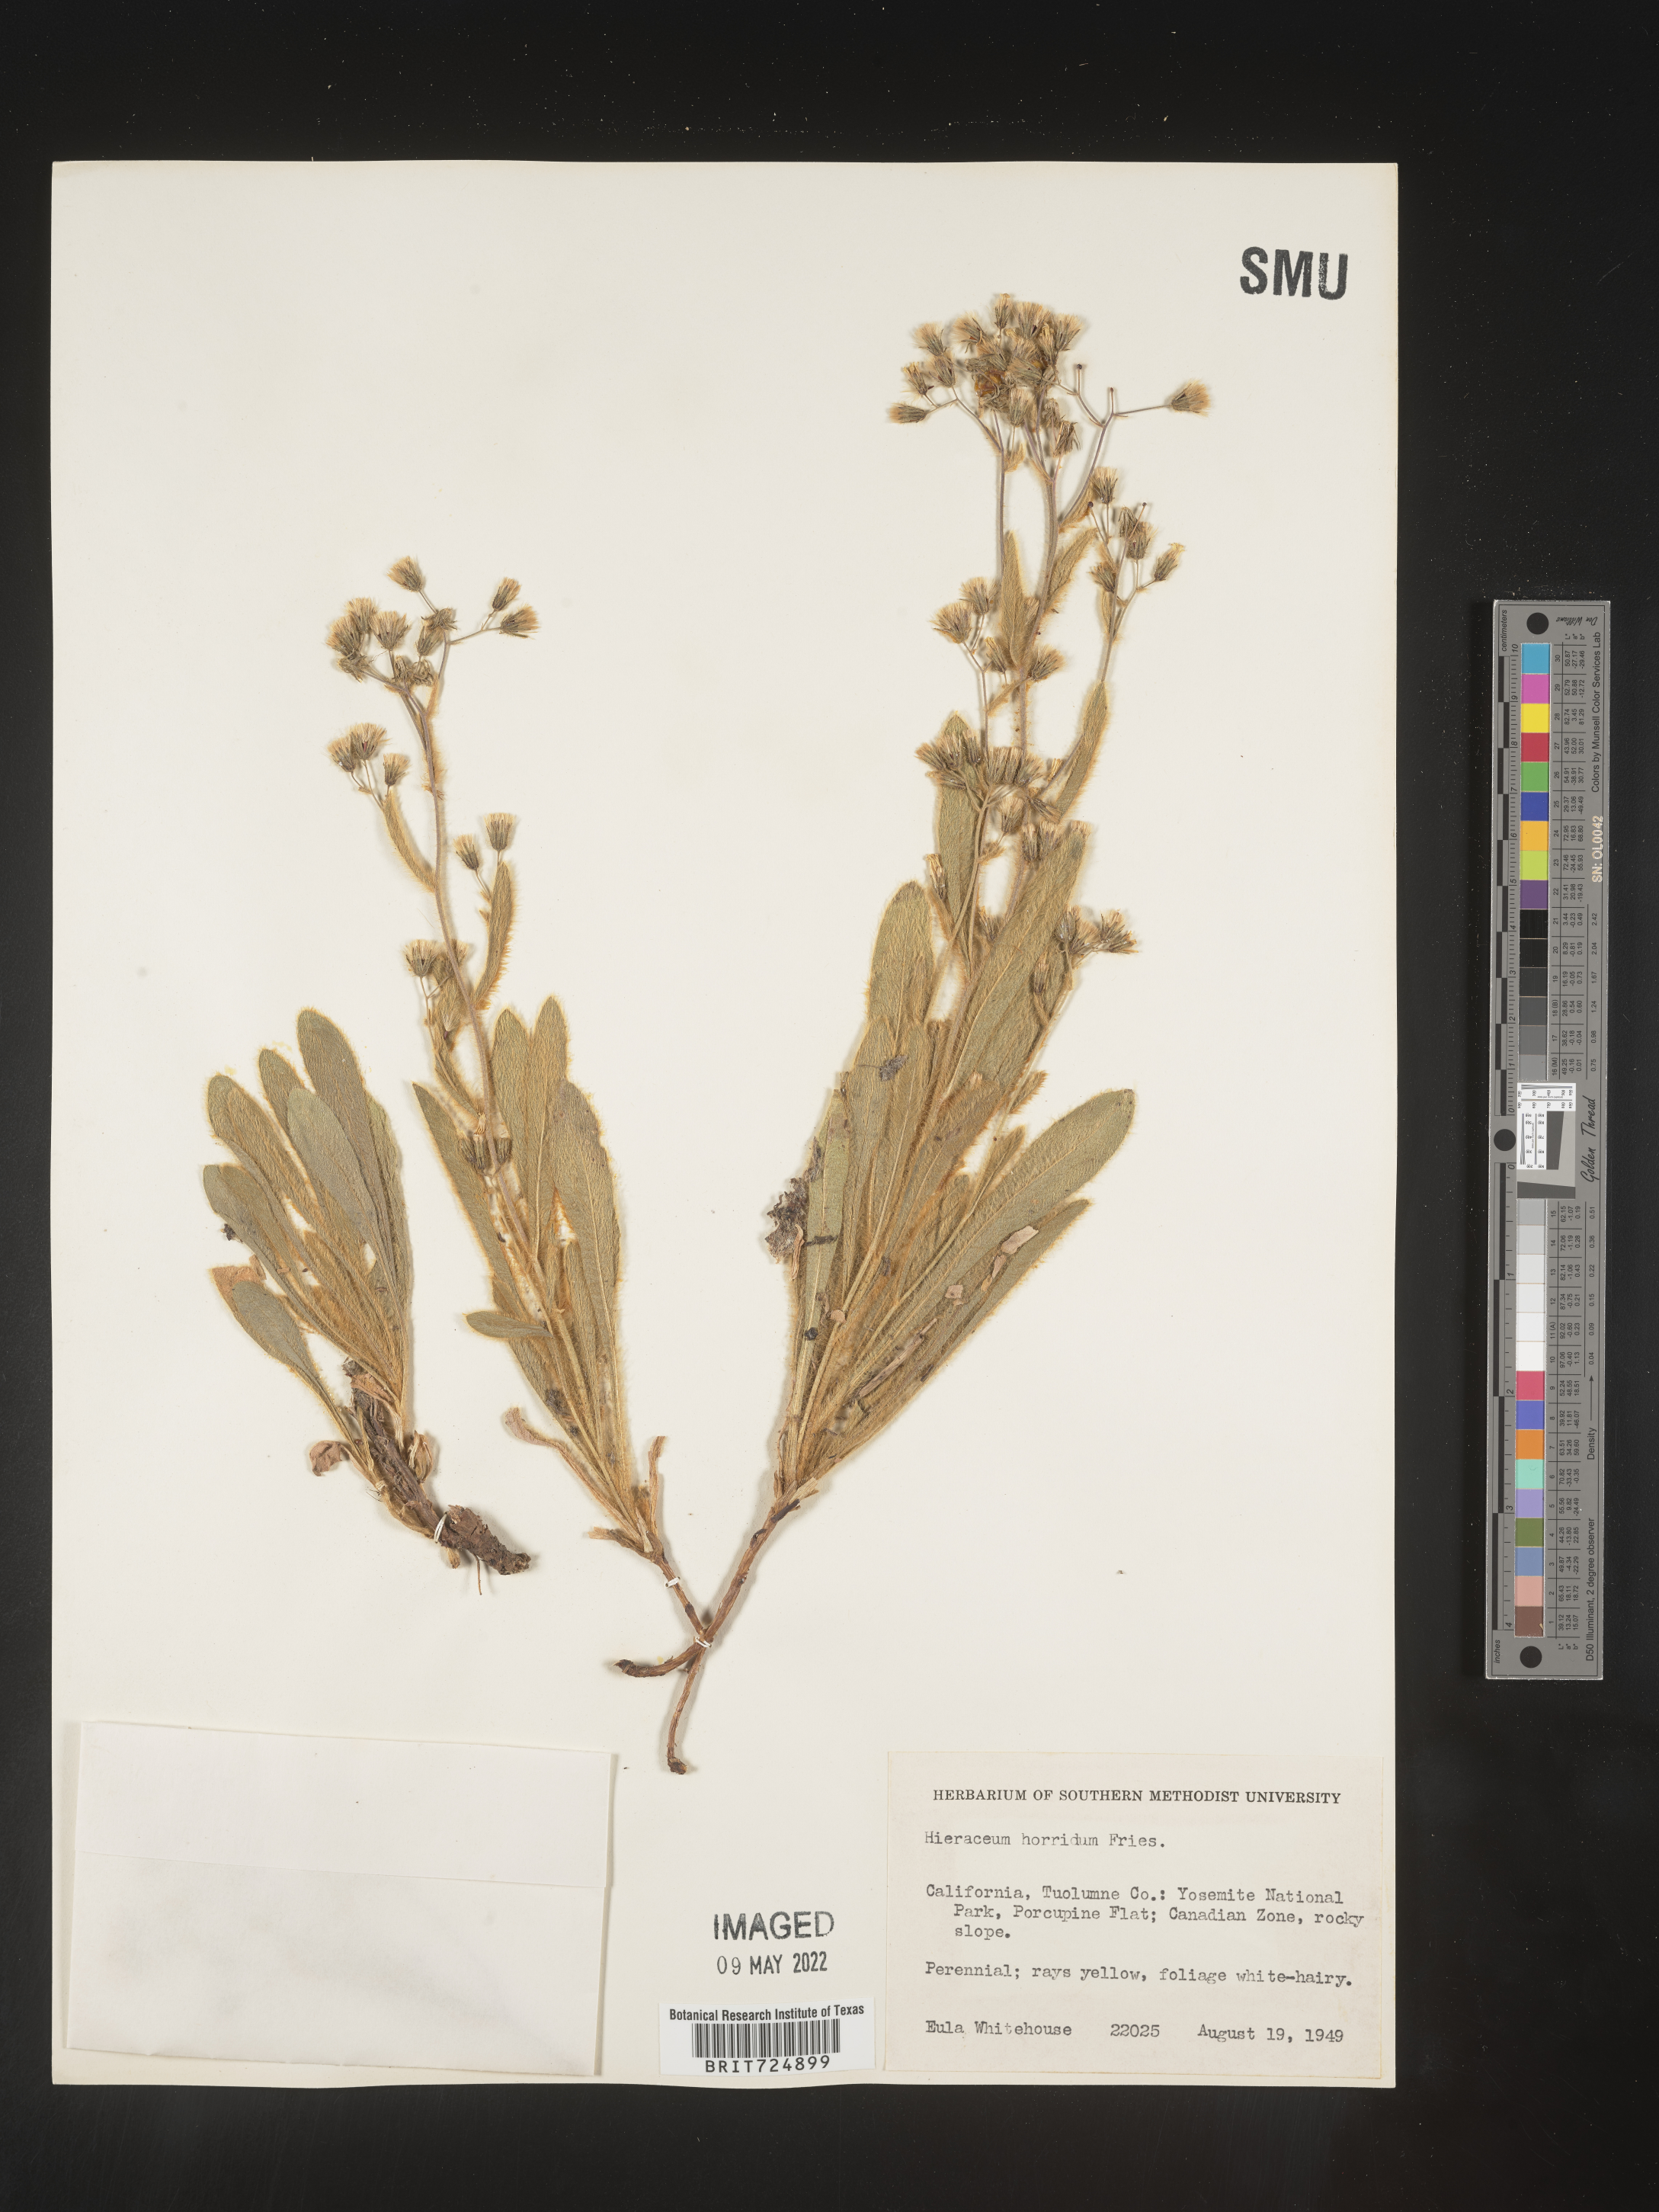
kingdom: Plantae
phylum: Tracheophyta
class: Magnoliopsida
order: Asterales
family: Asteraceae
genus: Hieracium
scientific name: Hieracium
